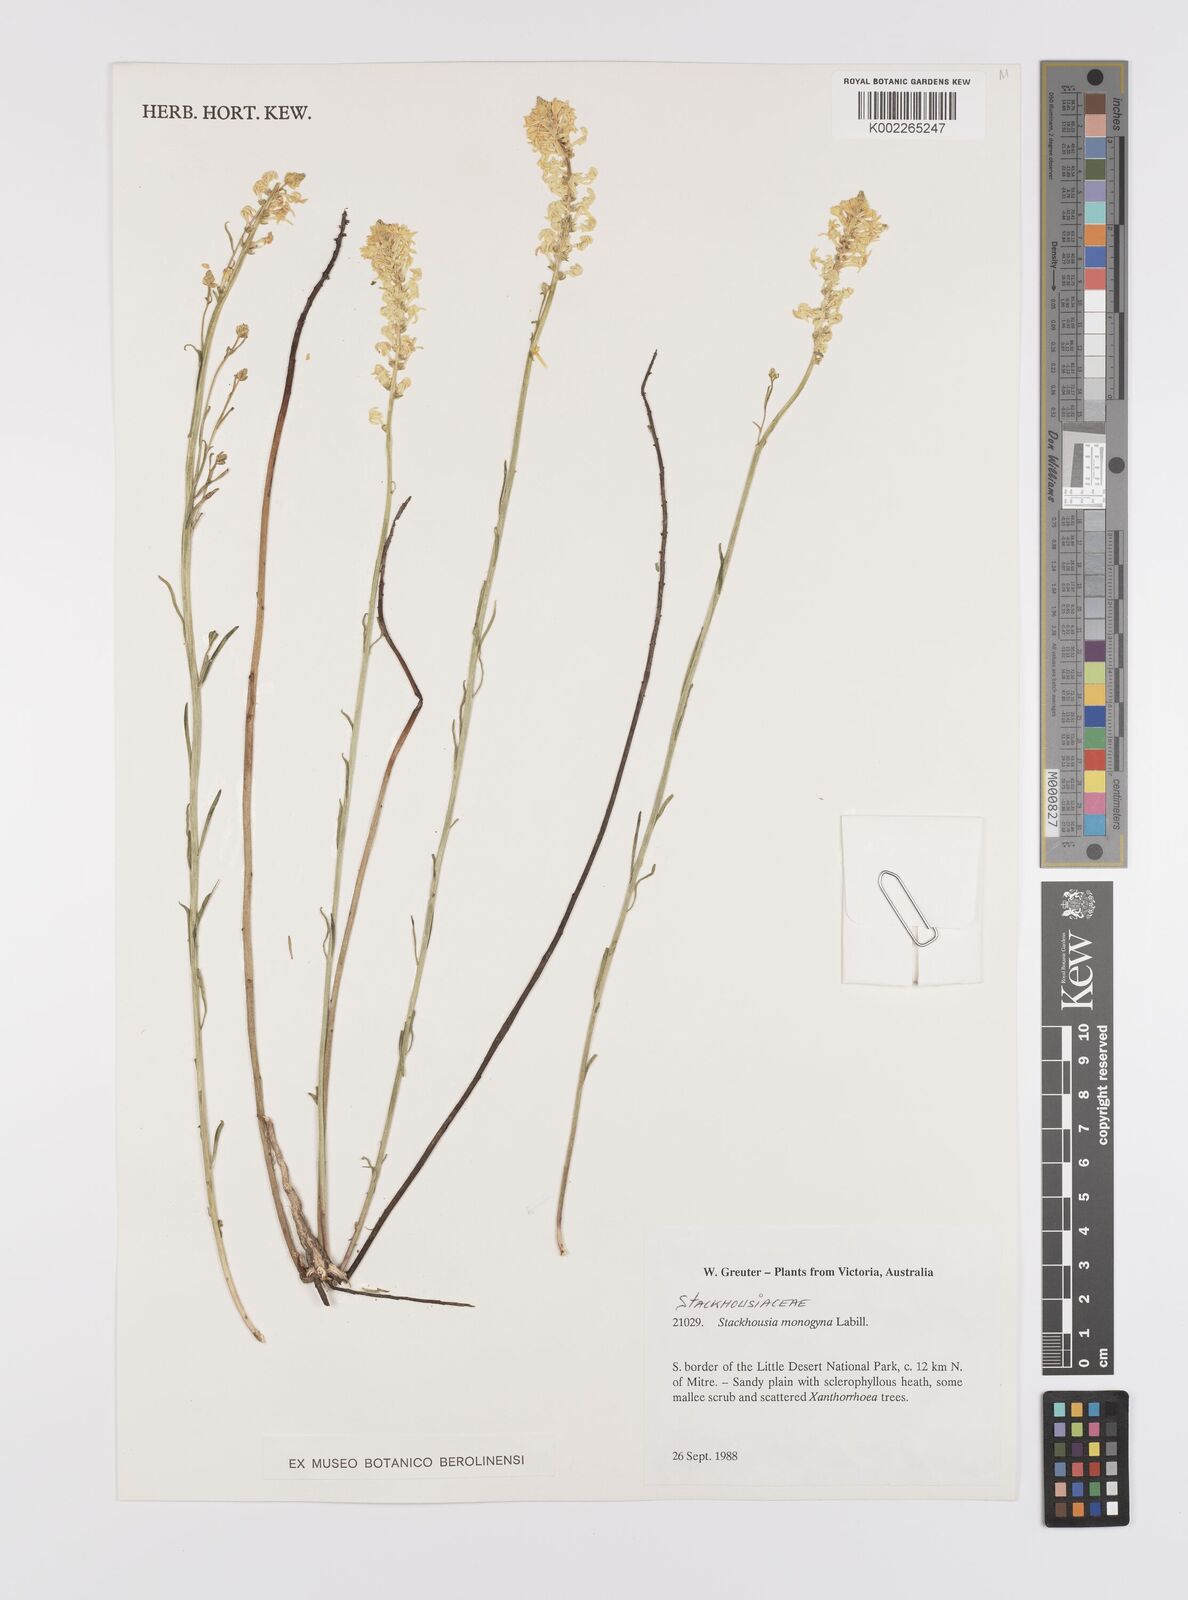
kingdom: Plantae
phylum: Tracheophyta
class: Magnoliopsida
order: Celastrales
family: Celastraceae
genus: Stackhousia
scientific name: Stackhousia monogyna
